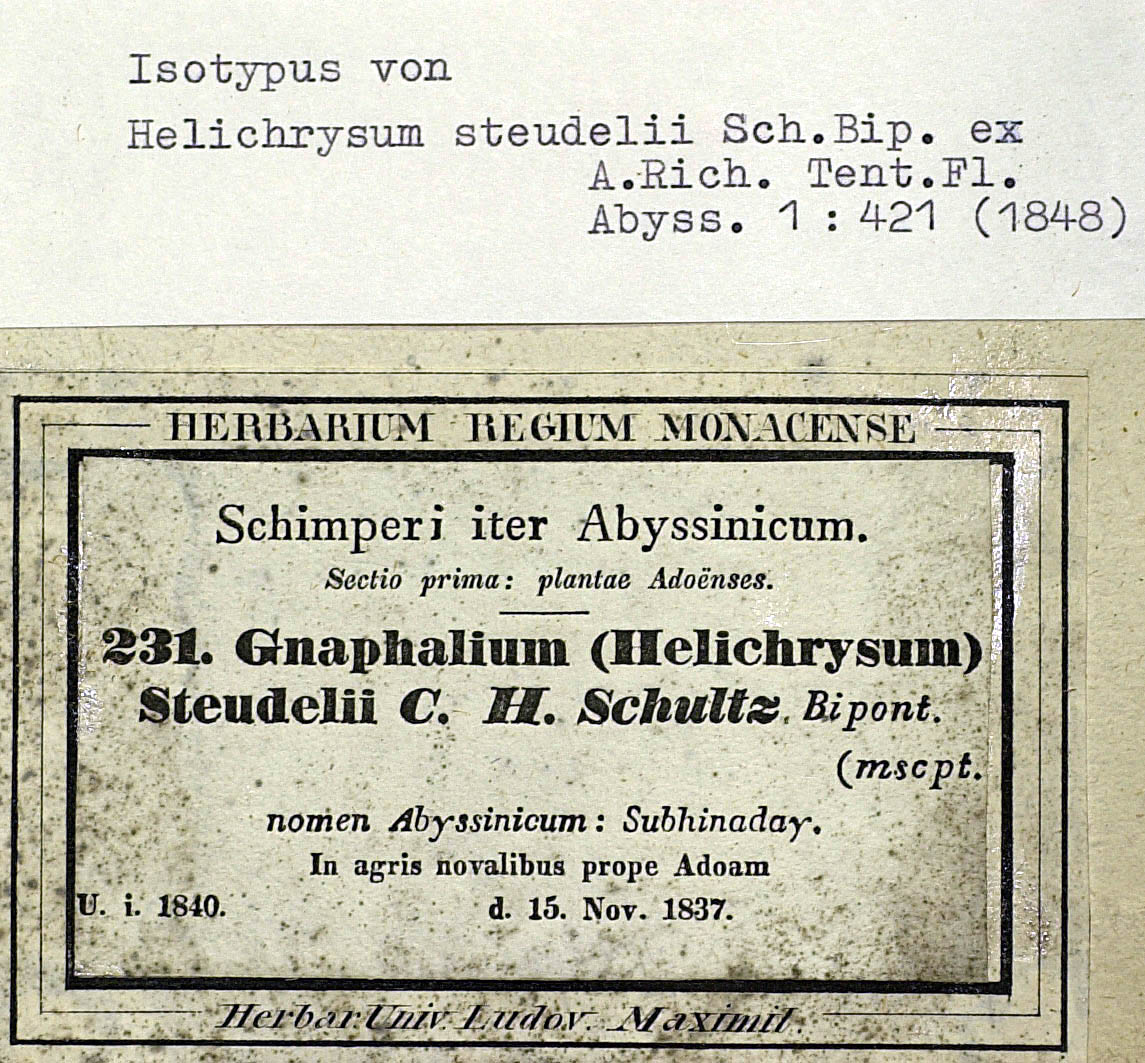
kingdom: Plantae
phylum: Tracheophyta
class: Magnoliopsida
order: Asterales
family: Asteraceae
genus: Pseudognaphalium
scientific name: Pseudognaphalium oligandrum
